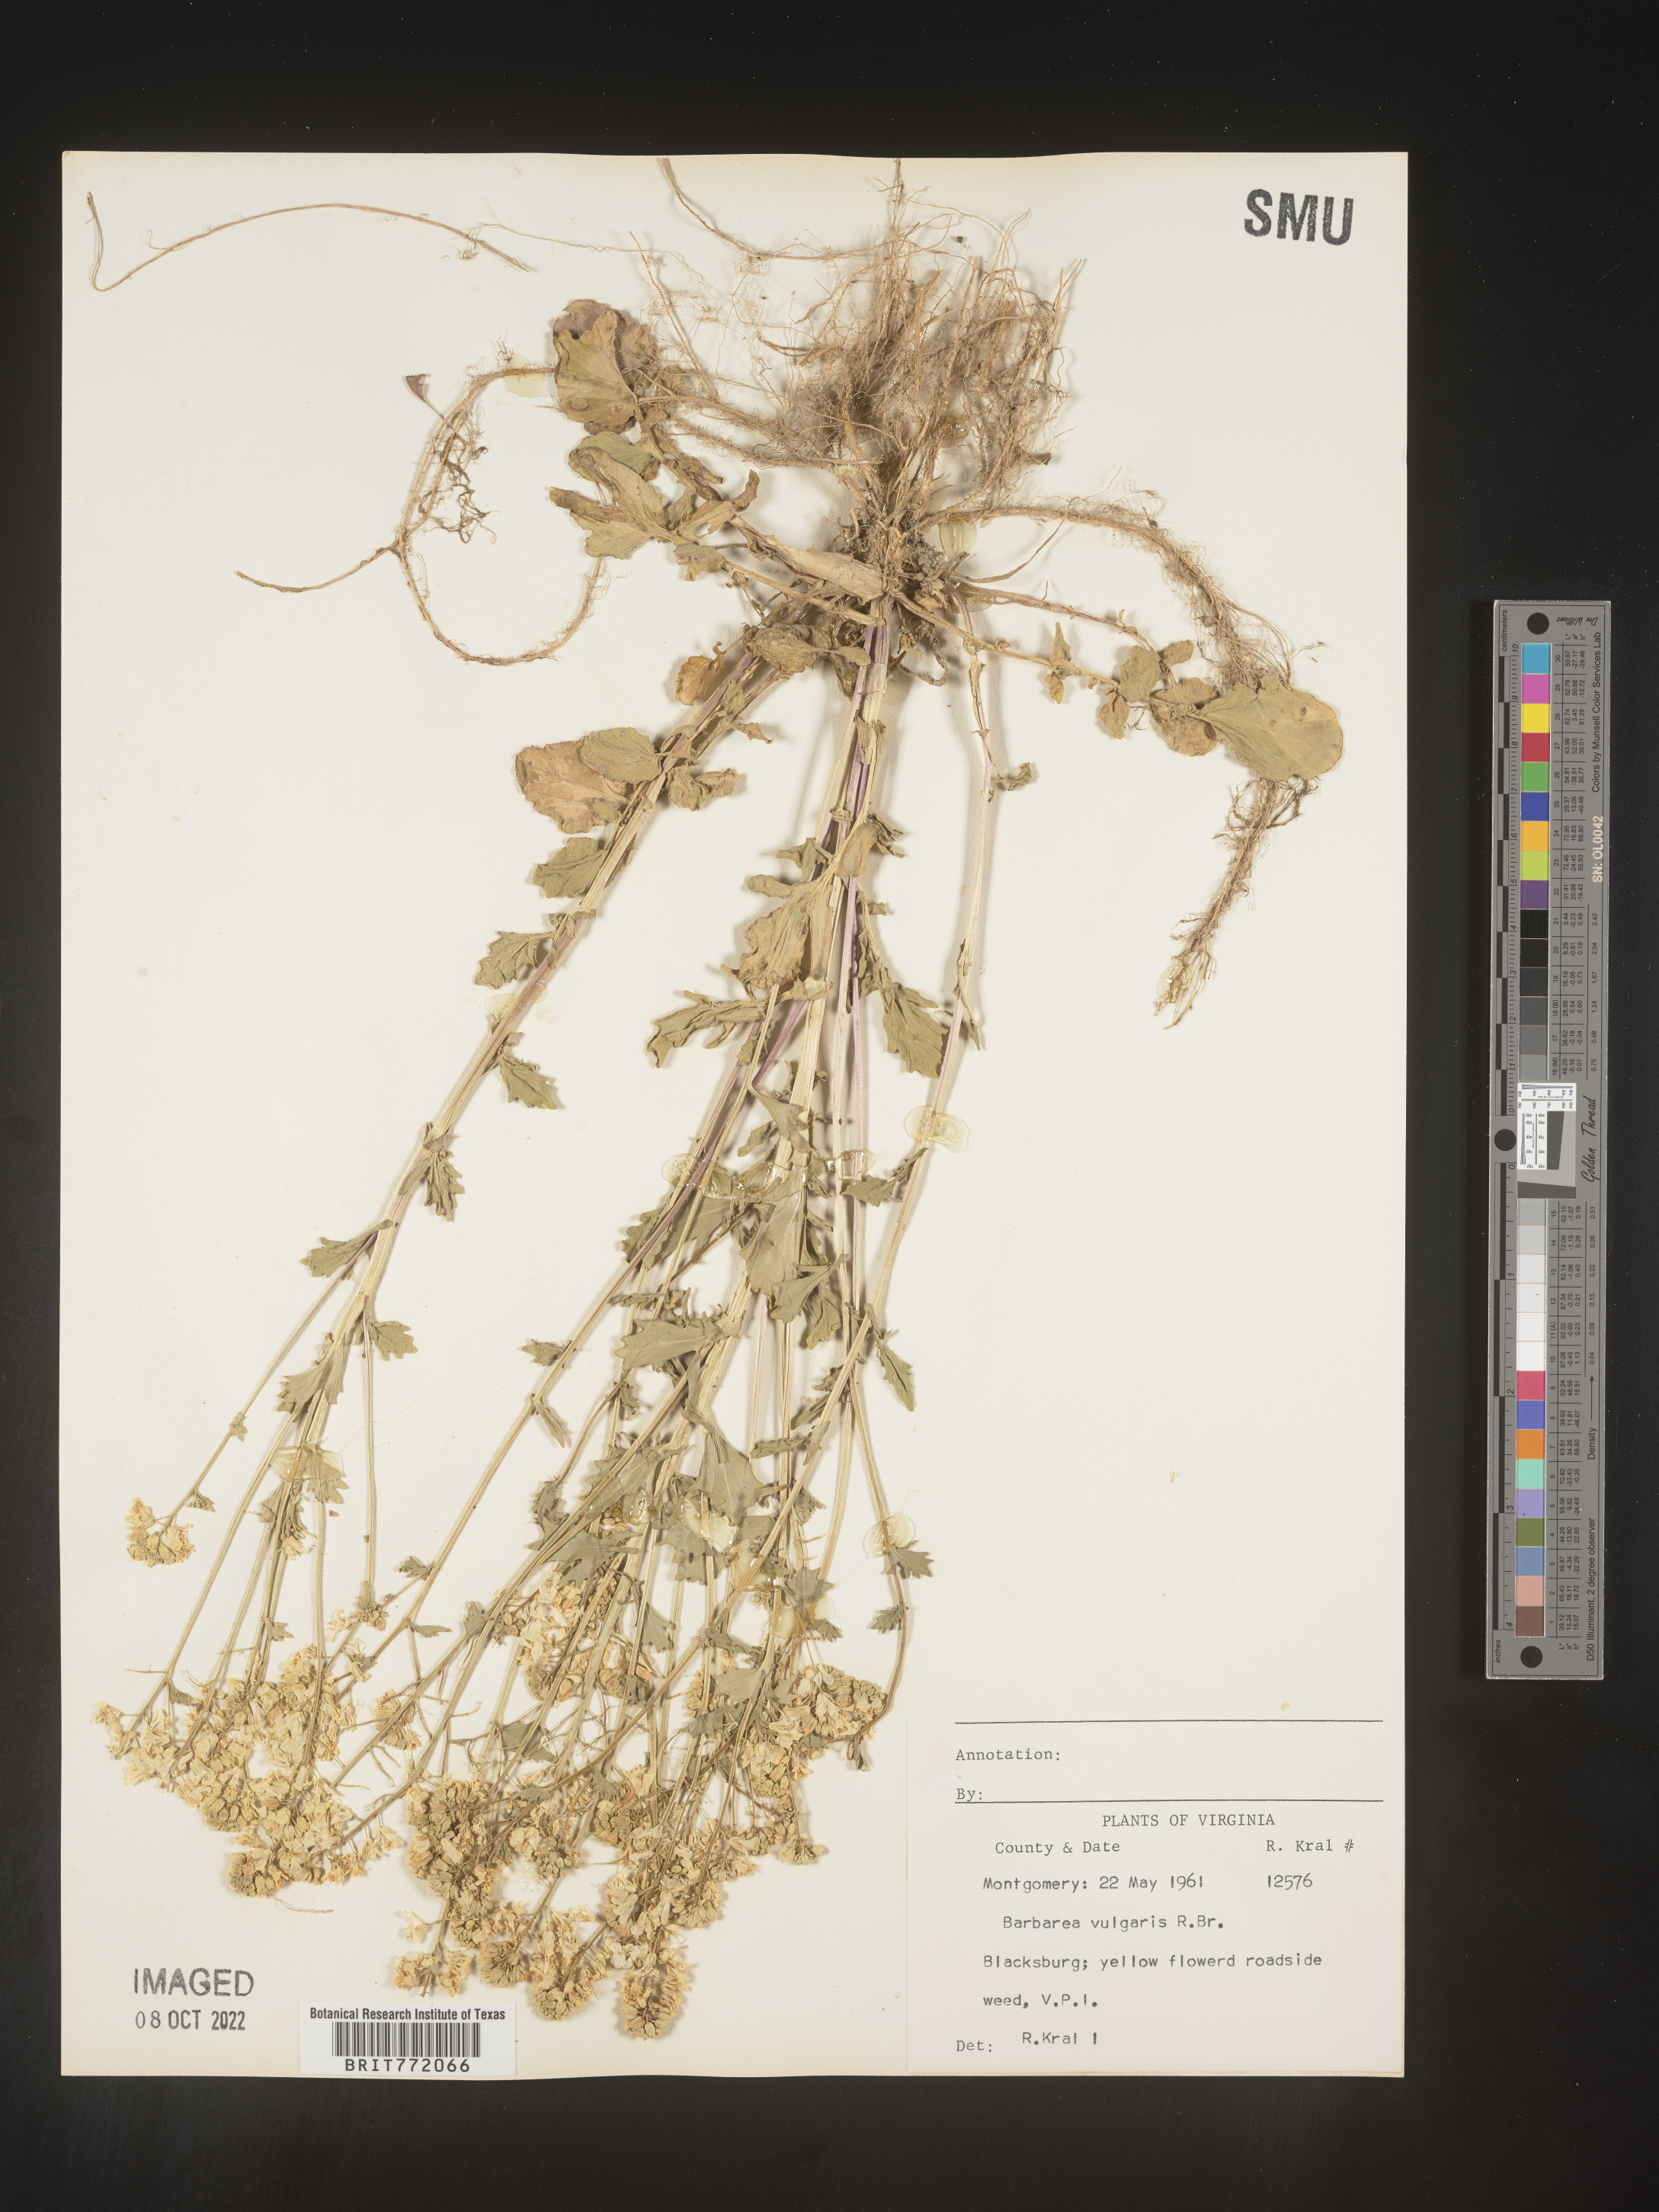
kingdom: Plantae
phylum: Tracheophyta
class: Magnoliopsida
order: Brassicales
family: Brassicaceae
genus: Barbarea
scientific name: Barbarea vulgaris
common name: Cressy-greens
